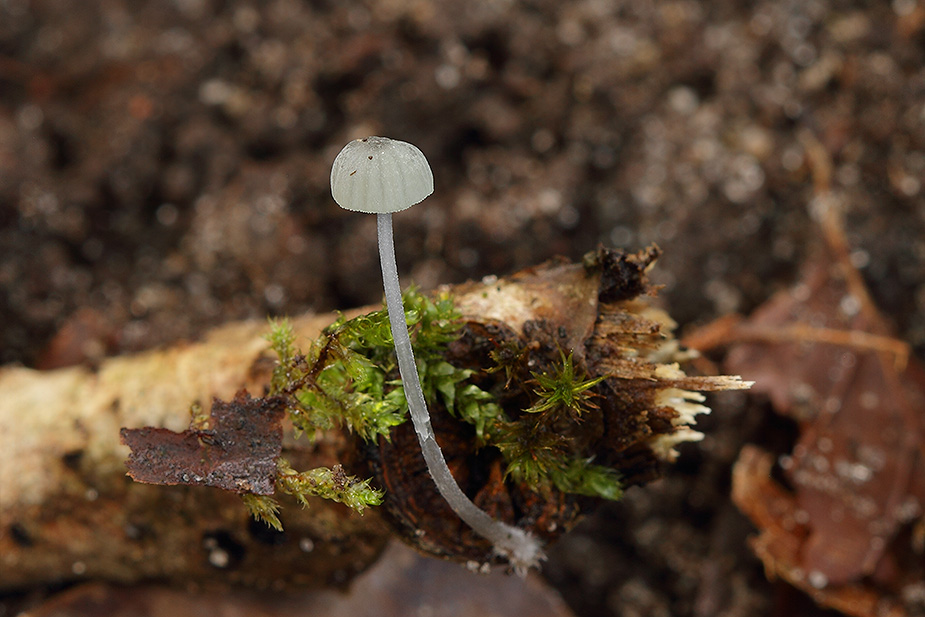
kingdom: Fungi
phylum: Basidiomycota
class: Agaricomycetes
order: Agaricales
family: Mycenaceae
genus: Mycena
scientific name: Mycena pseudocorticola
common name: gråblå bark-huesvamp
